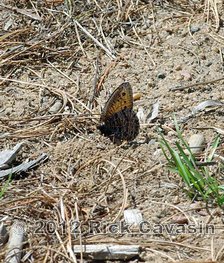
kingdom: Animalia
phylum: Arthropoda
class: Insecta
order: Lepidoptera
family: Nymphalidae
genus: Oeneis
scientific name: Oeneis chryxus
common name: Chryxus Arctic
